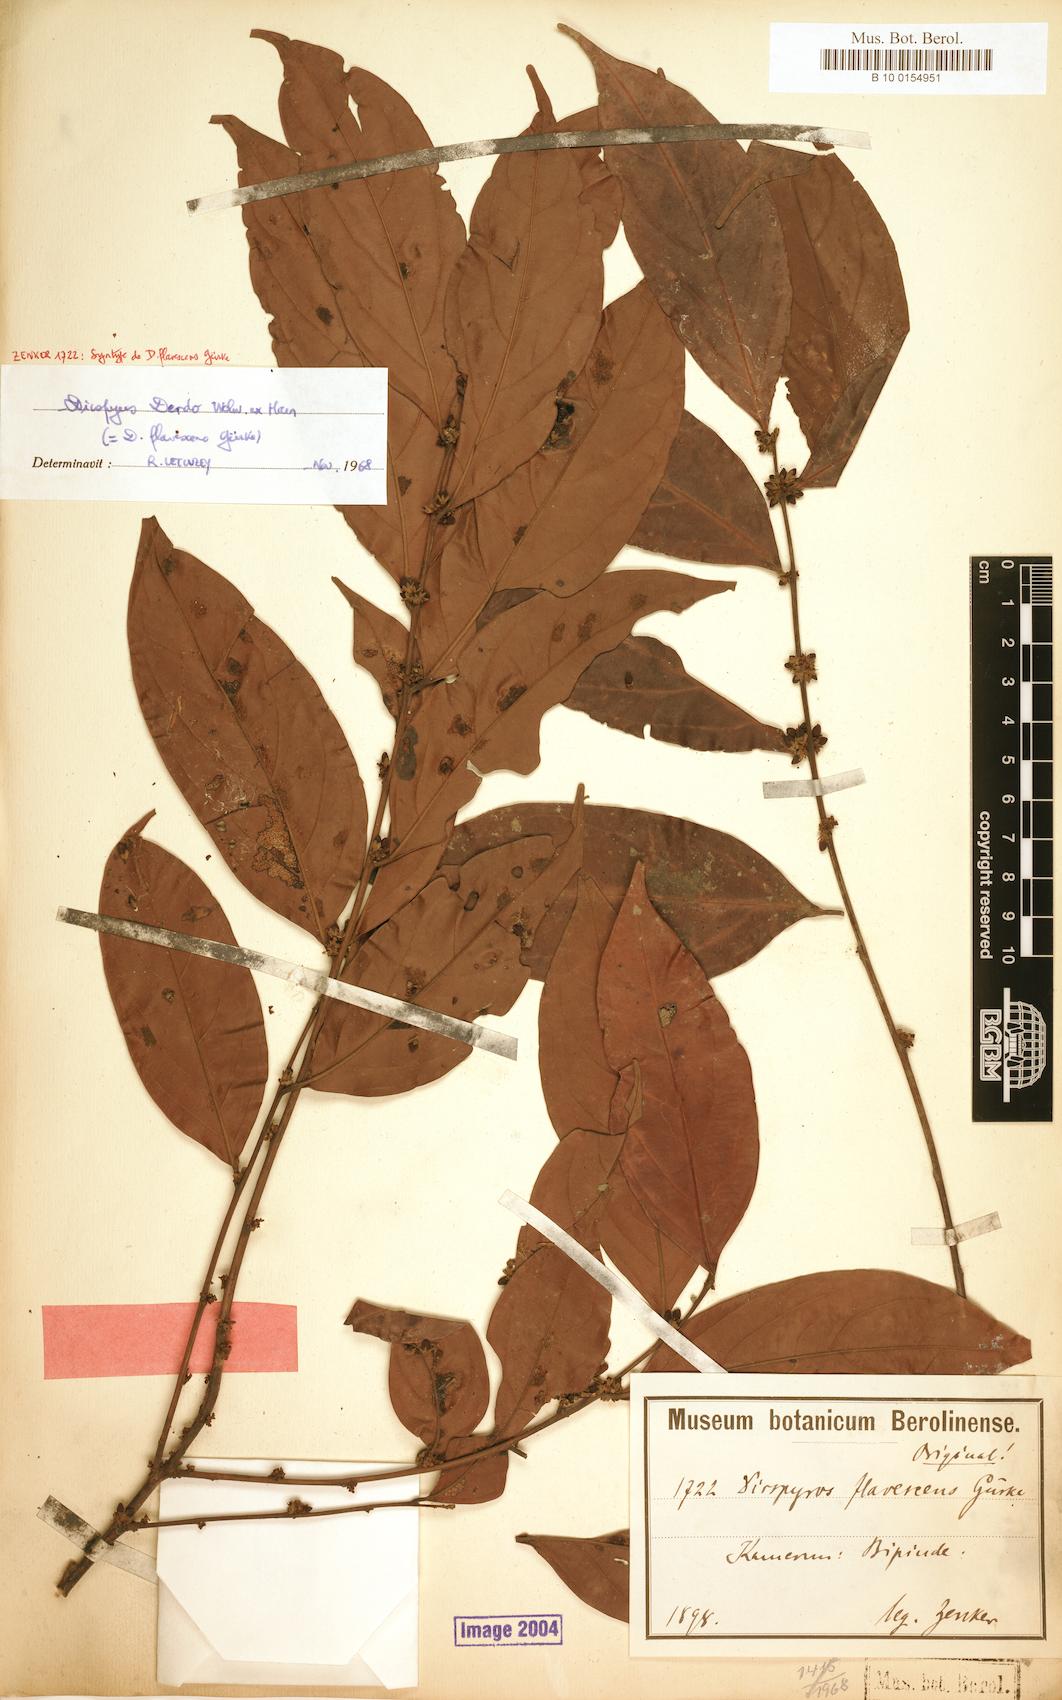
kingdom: Plantae
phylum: Tracheophyta
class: Magnoliopsida
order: Ericales
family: Ebenaceae
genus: Diospyros
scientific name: Diospyros dendo
